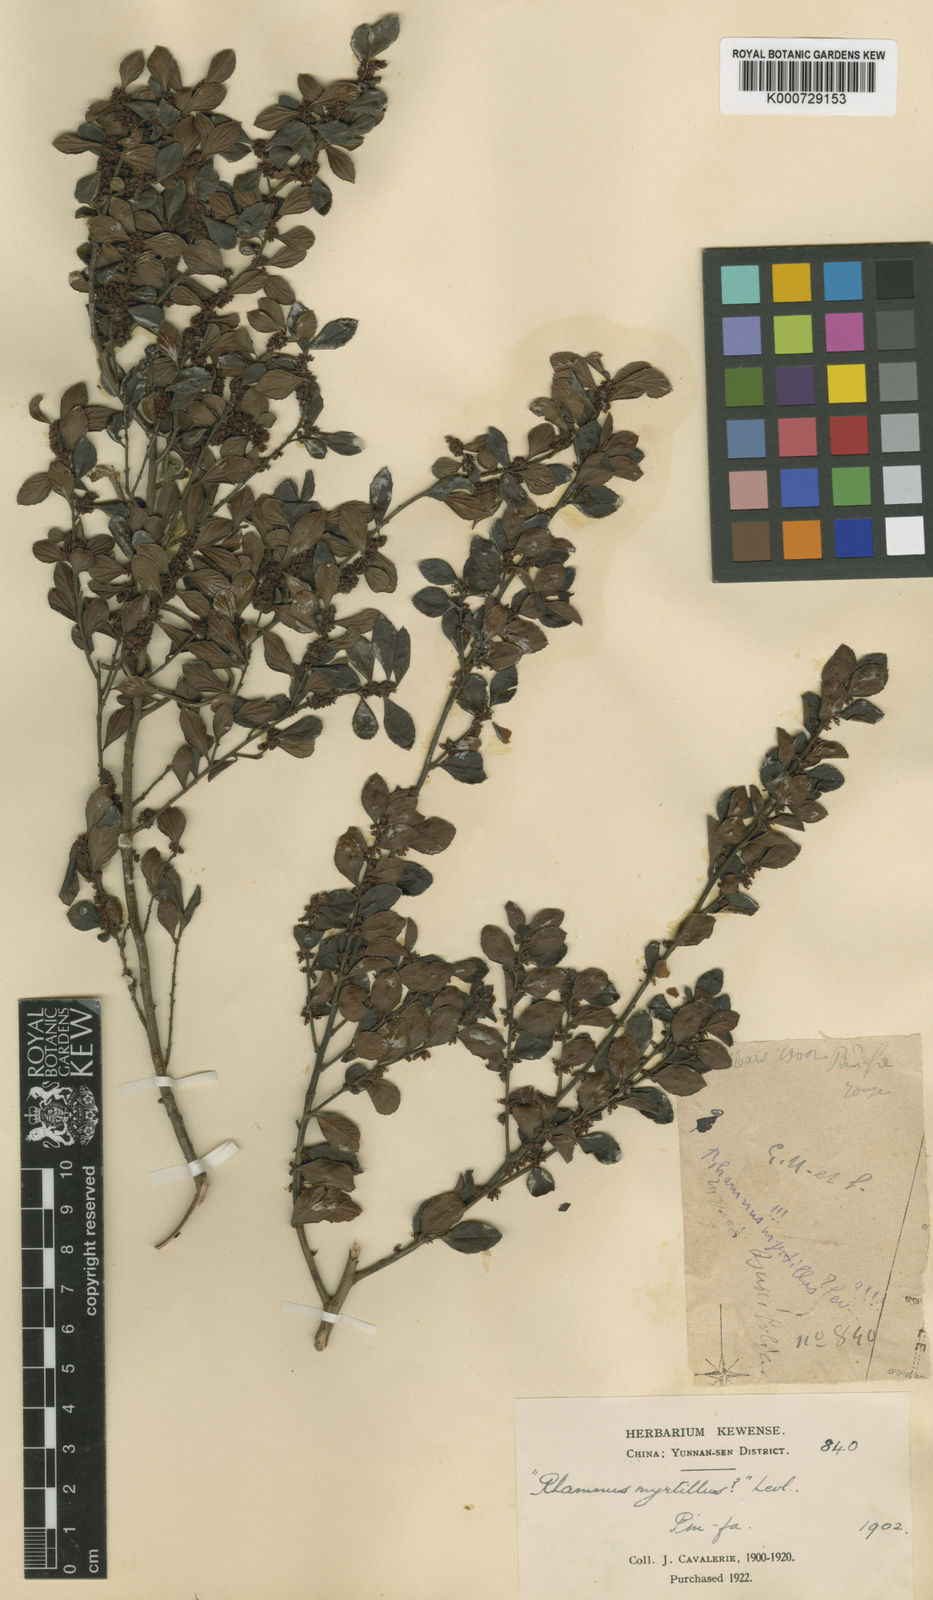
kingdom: Plantae
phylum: Tracheophyta
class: Magnoliopsida
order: Rosales
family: Rhamnaceae
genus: Rhamnus
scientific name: Rhamnus
